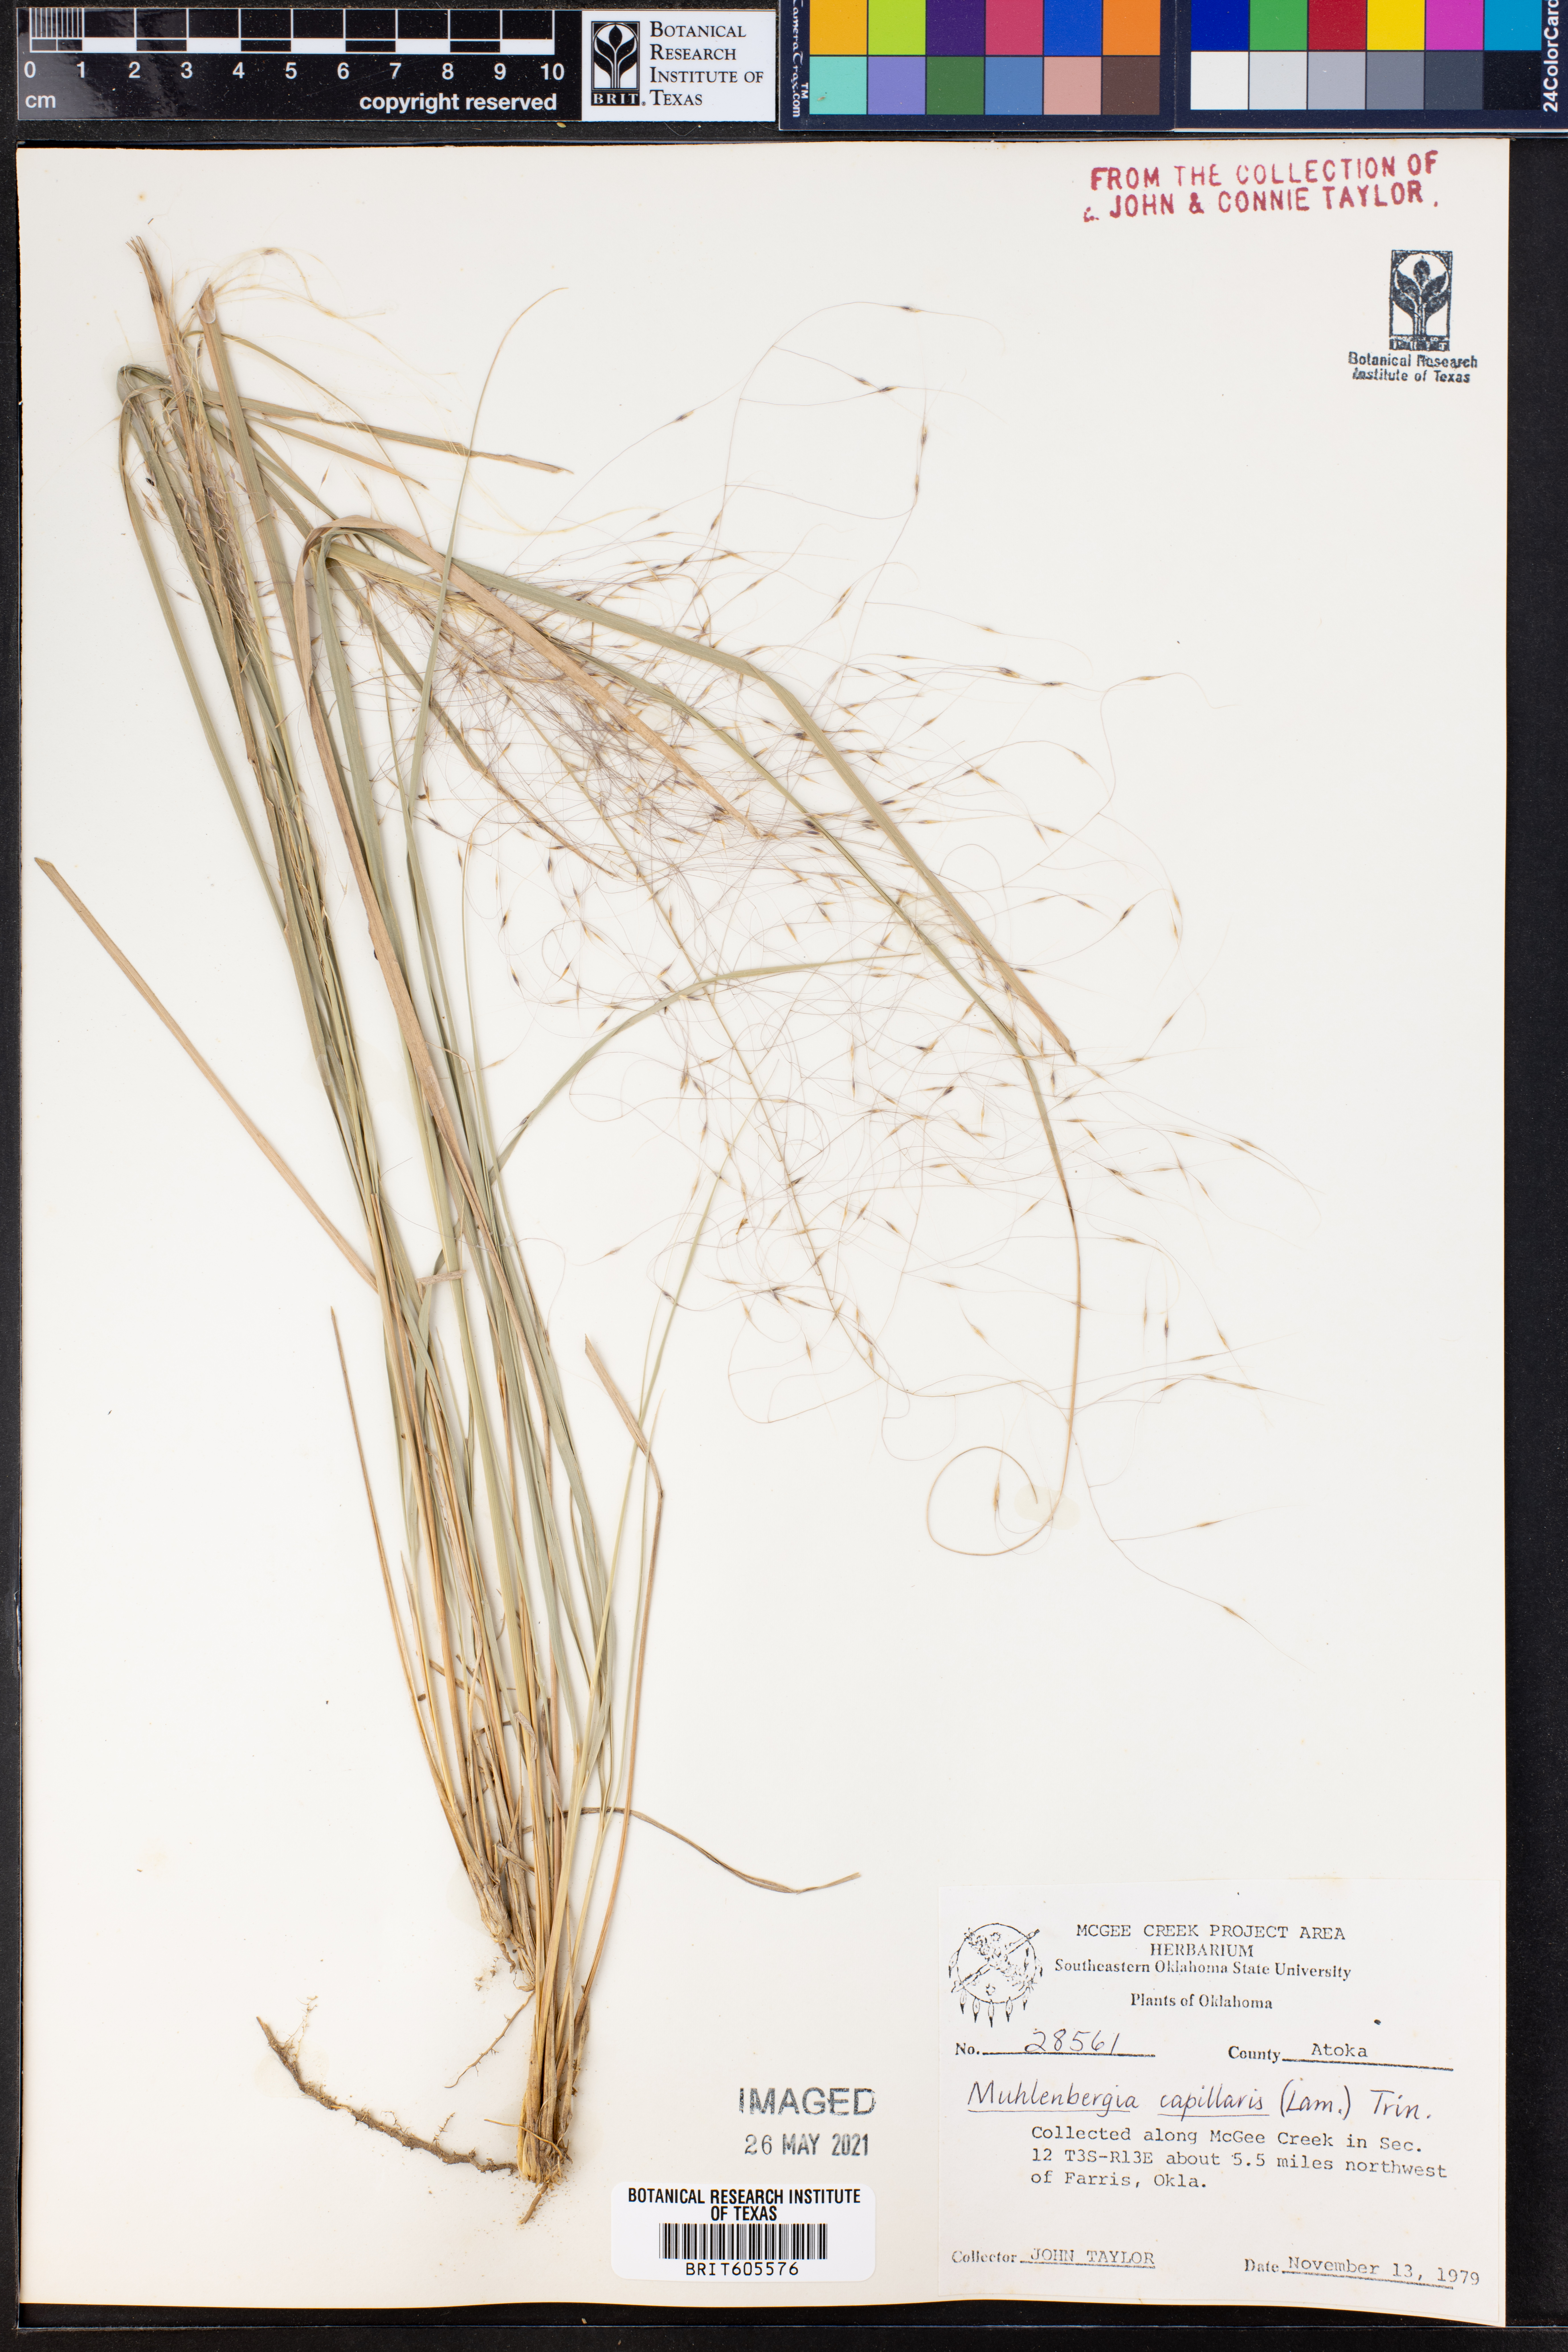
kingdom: Plantae
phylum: Tracheophyta
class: Liliopsida
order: Poales
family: Poaceae
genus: Muhlenbergia
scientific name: Muhlenbergia capillaris
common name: Purple grass
